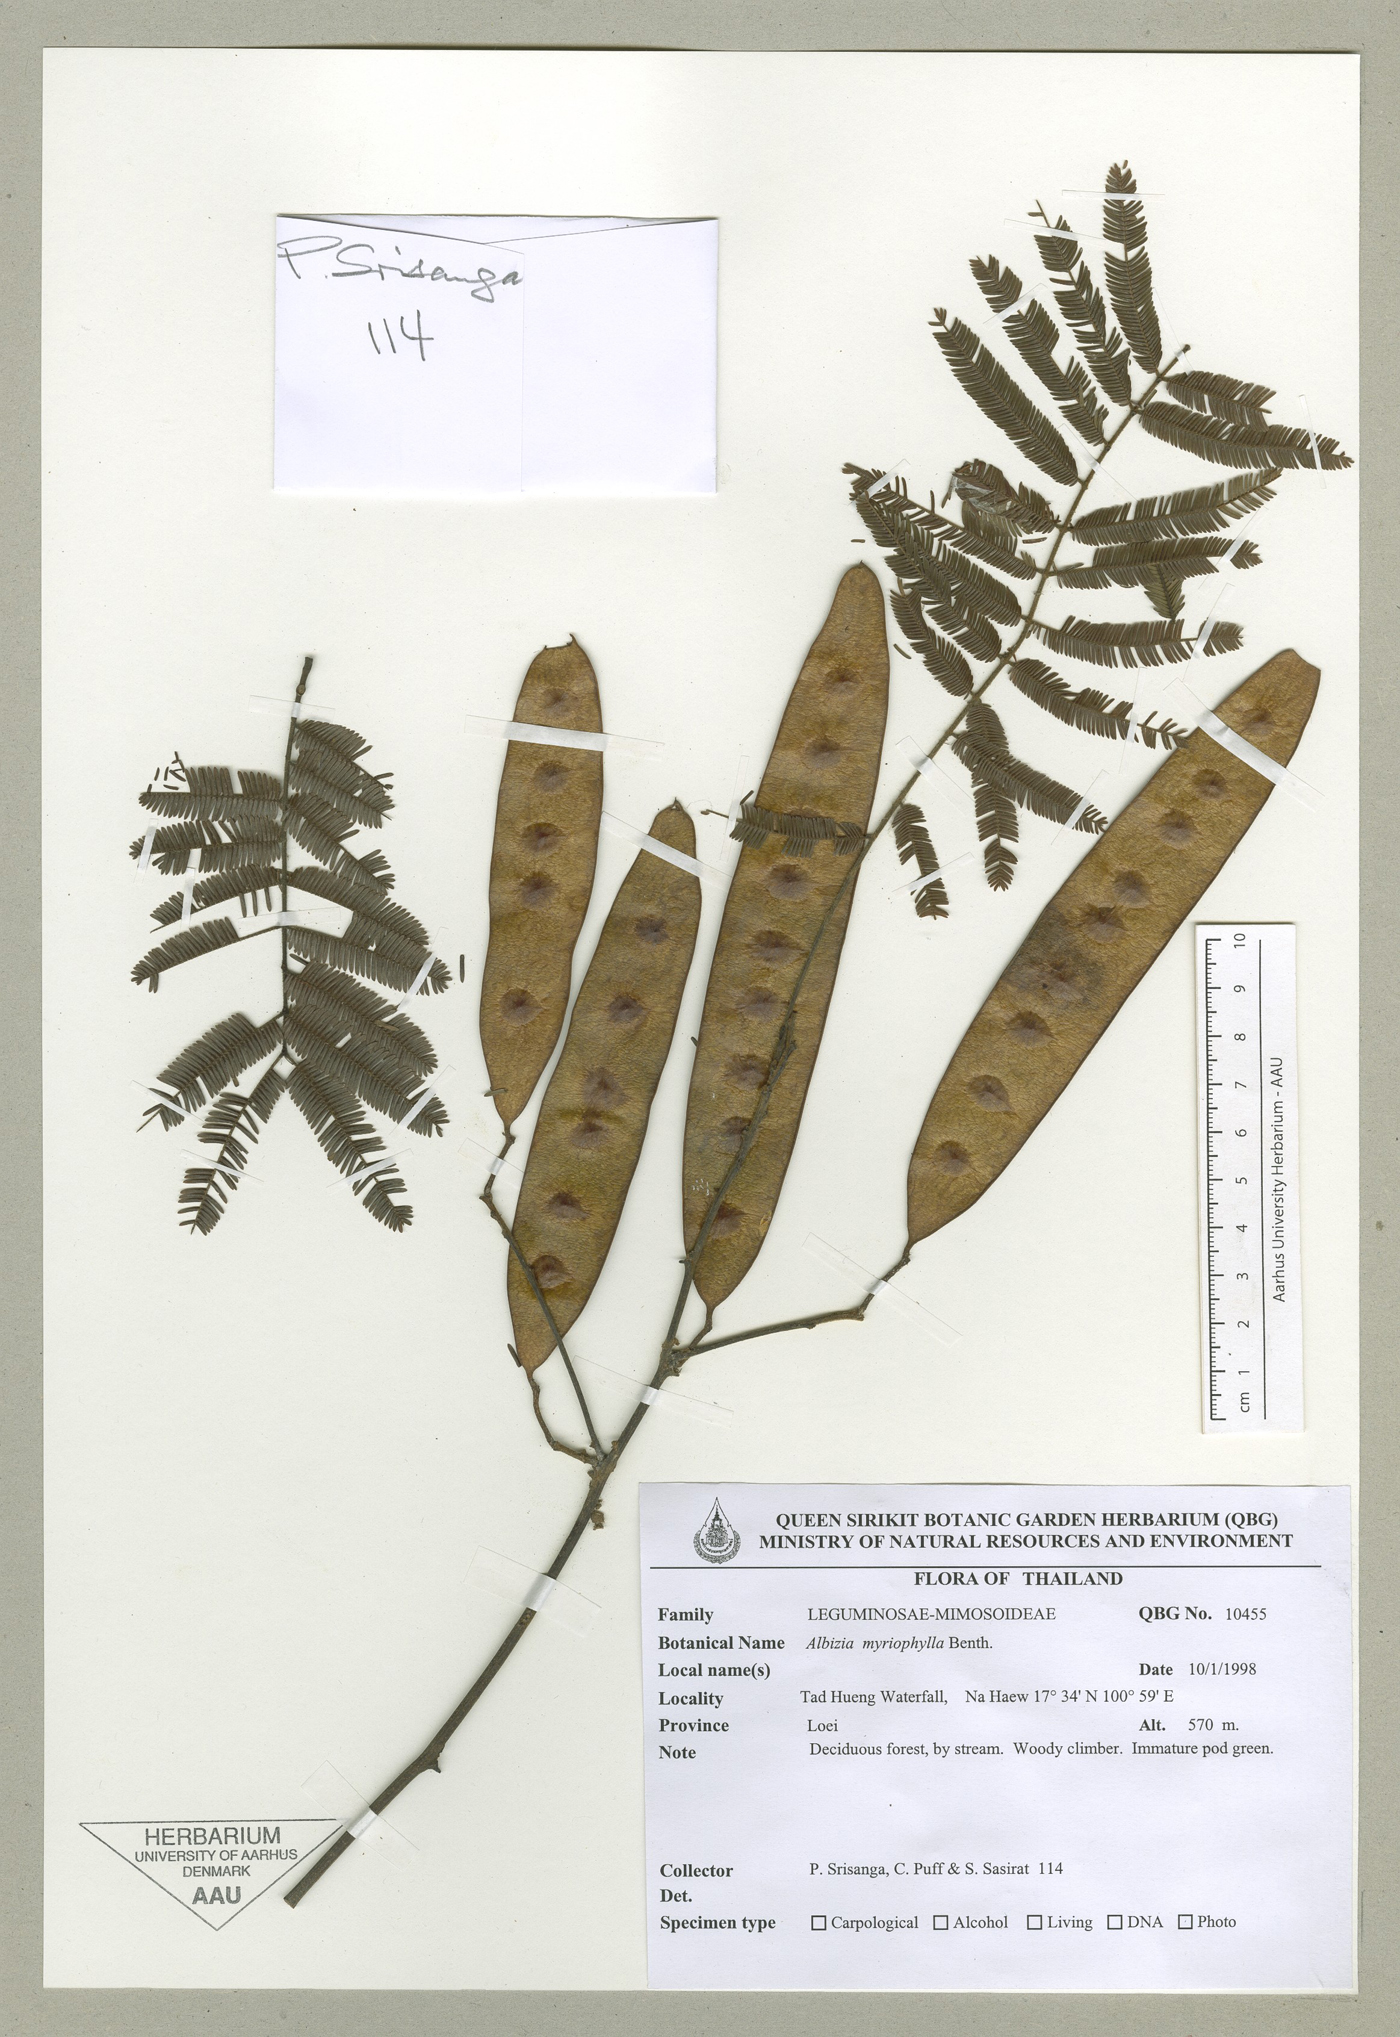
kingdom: Plantae
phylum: Tracheophyta
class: Magnoliopsida
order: Fabales
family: Fabaceae
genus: Albizia
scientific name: Albizia myriophylla
